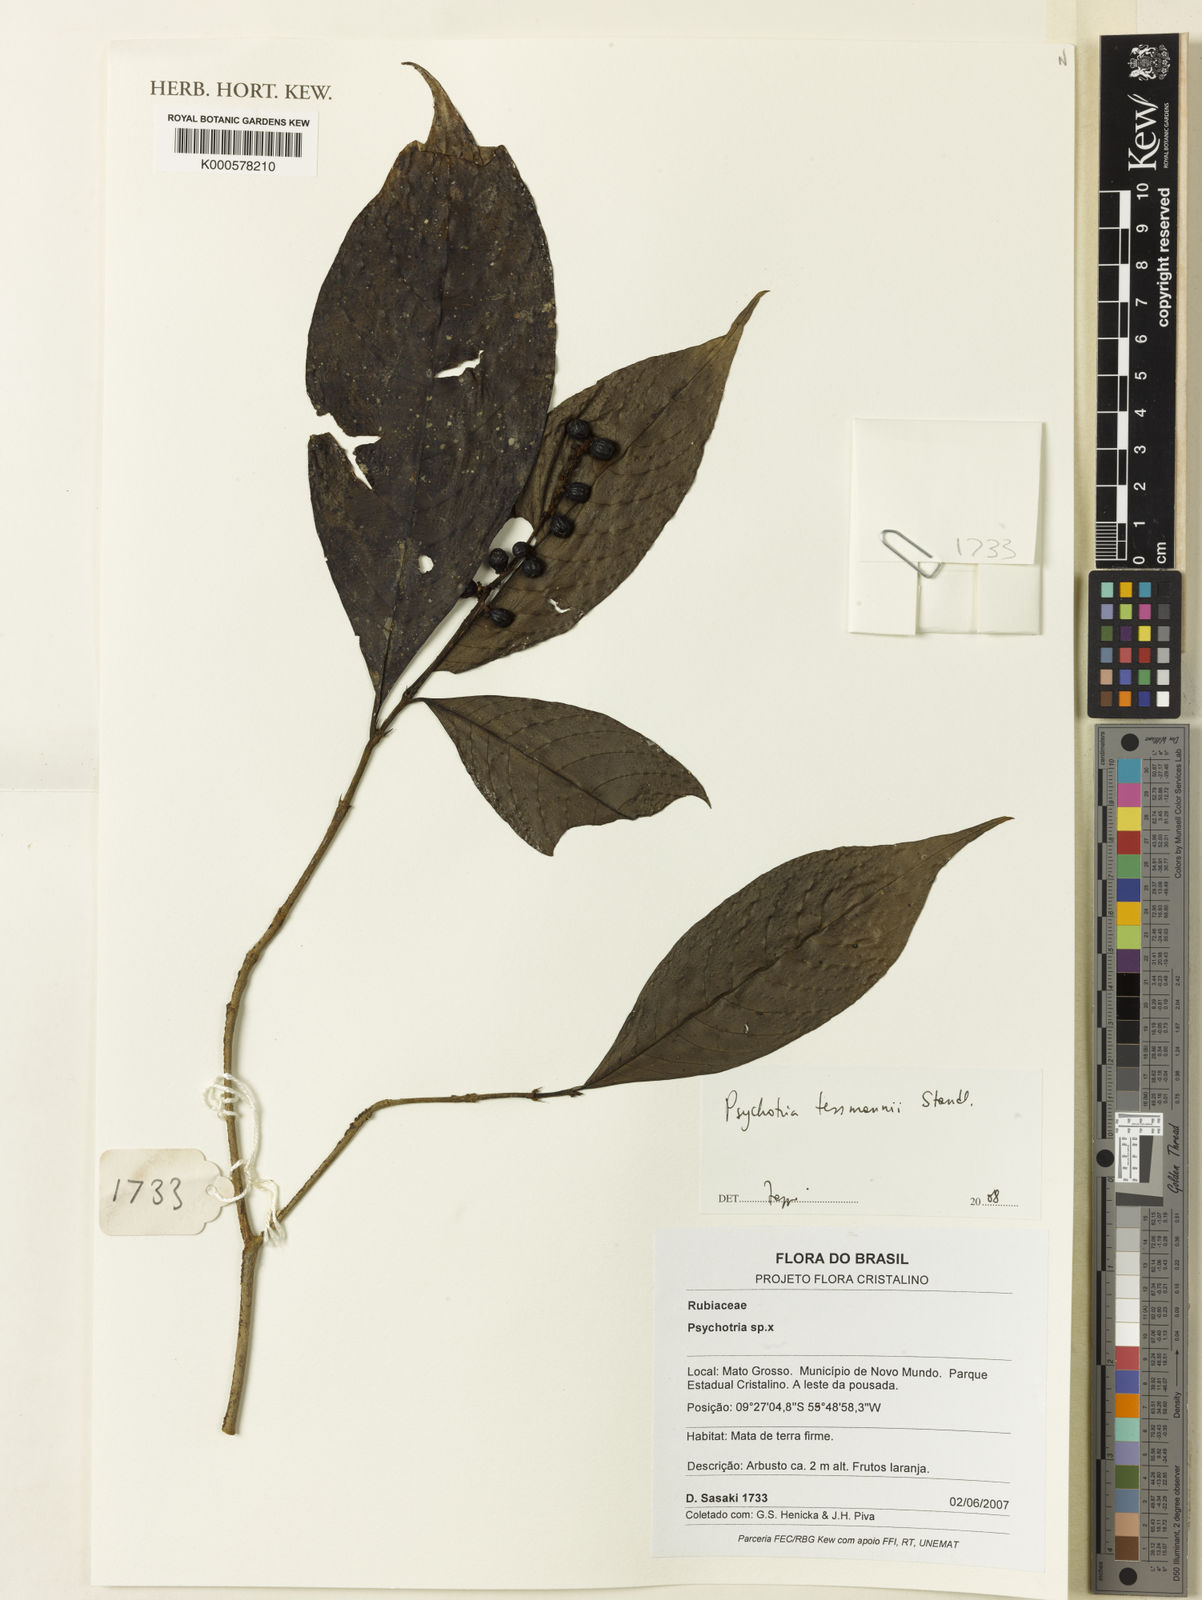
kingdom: Plantae
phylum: Tracheophyta
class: Magnoliopsida
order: Gentianales
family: Rubiaceae
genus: Palicourea
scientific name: Palicourea subfusca
